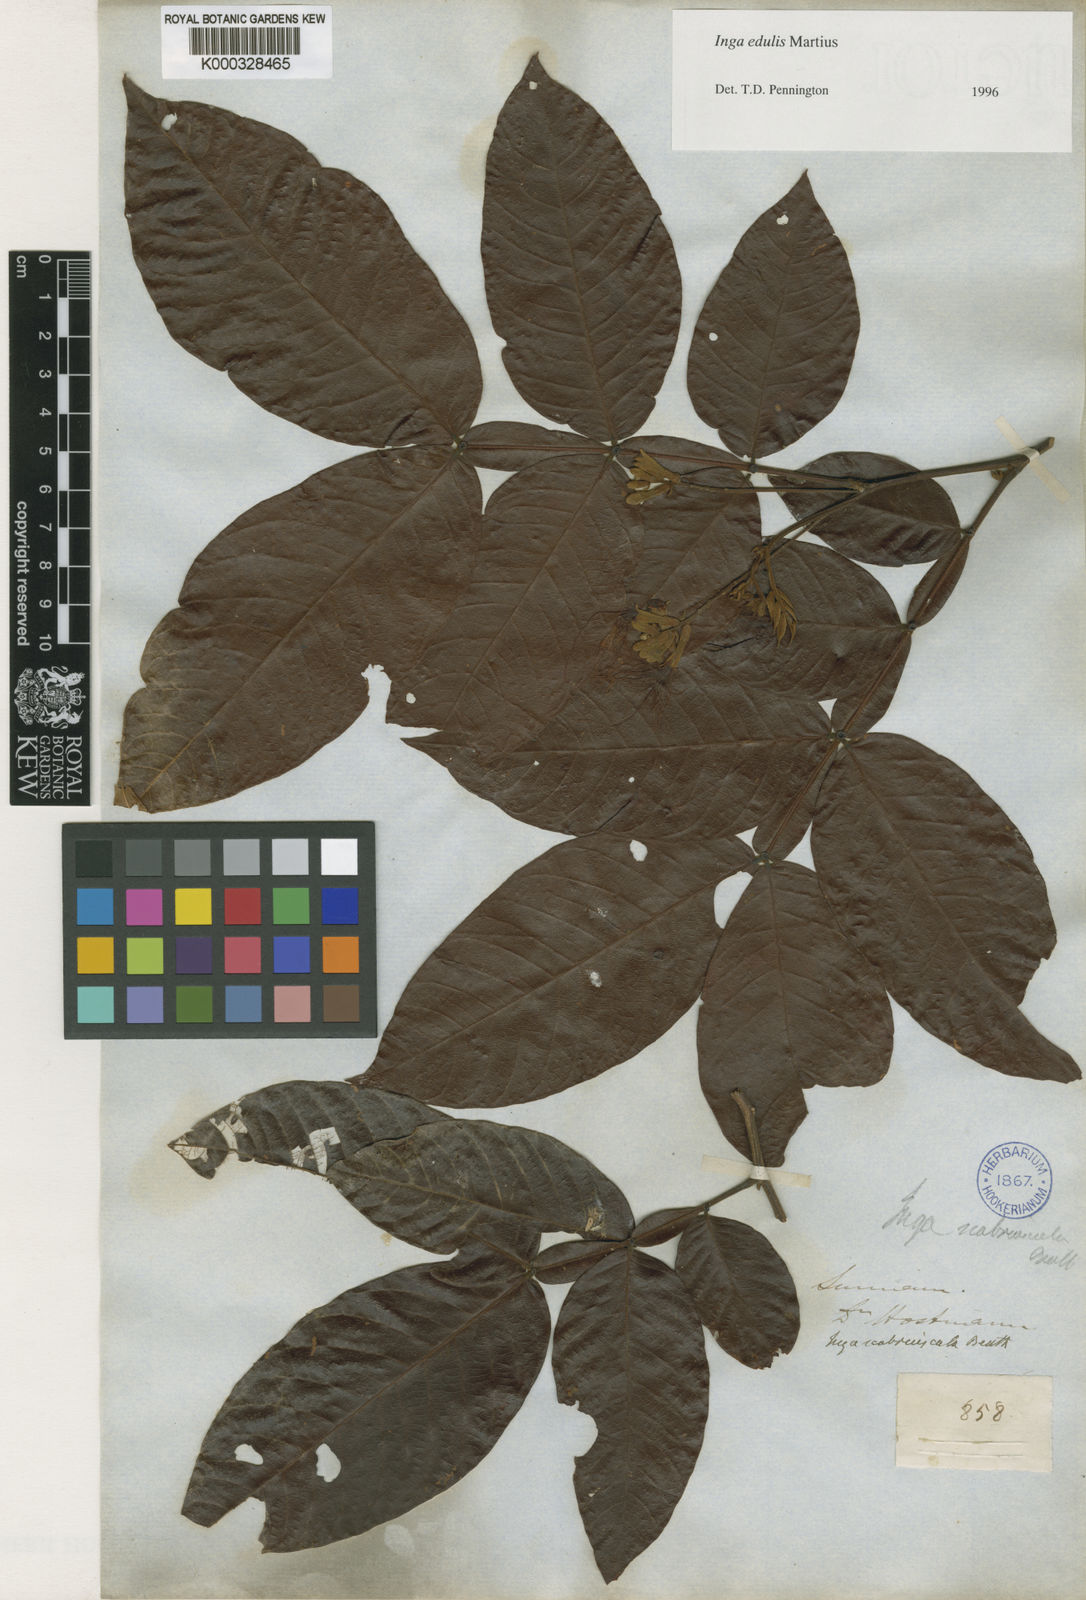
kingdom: Plantae
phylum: Tracheophyta
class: Magnoliopsida
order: Fabales
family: Fabaceae
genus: Inga
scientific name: Inga edulis
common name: Ice cream bean
